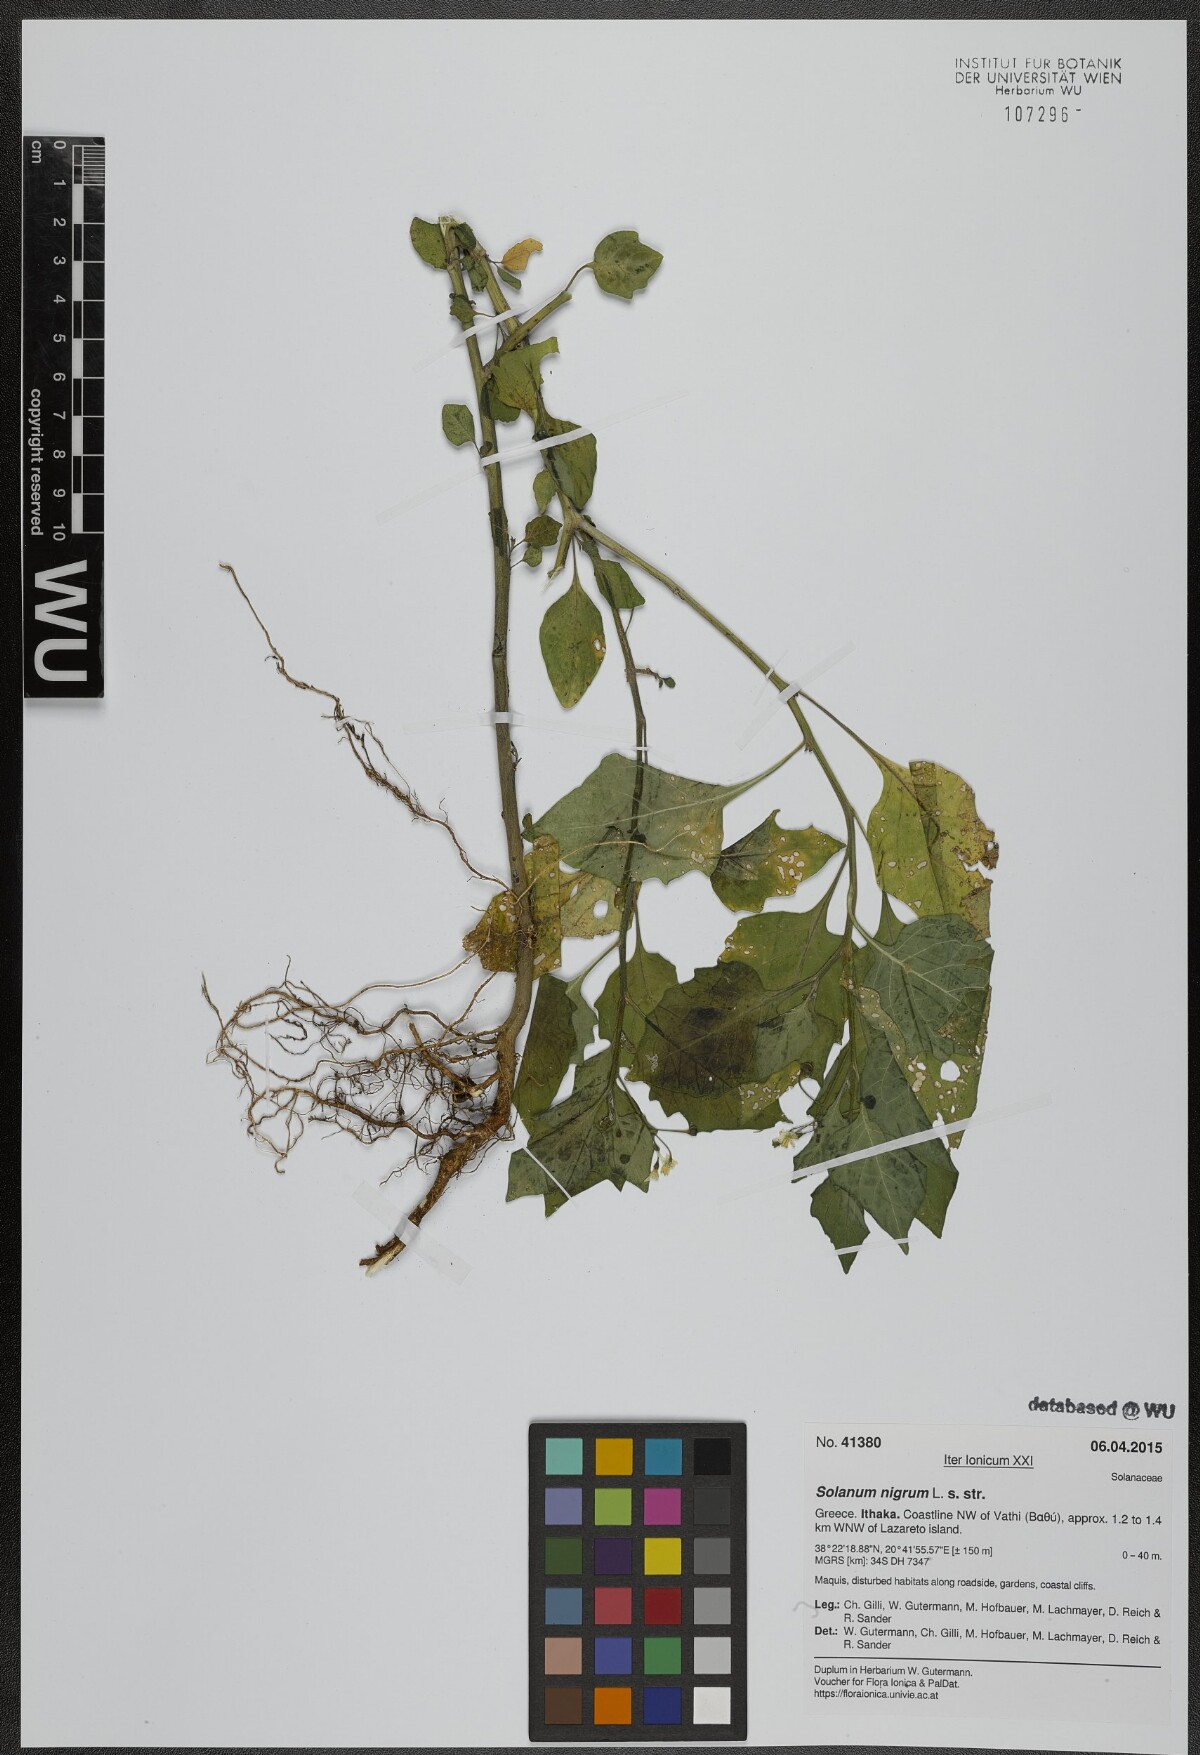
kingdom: Plantae
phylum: Tracheophyta
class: Magnoliopsida
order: Solanales
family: Solanaceae
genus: Solanum
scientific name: Solanum nigrum
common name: Black nightshade
